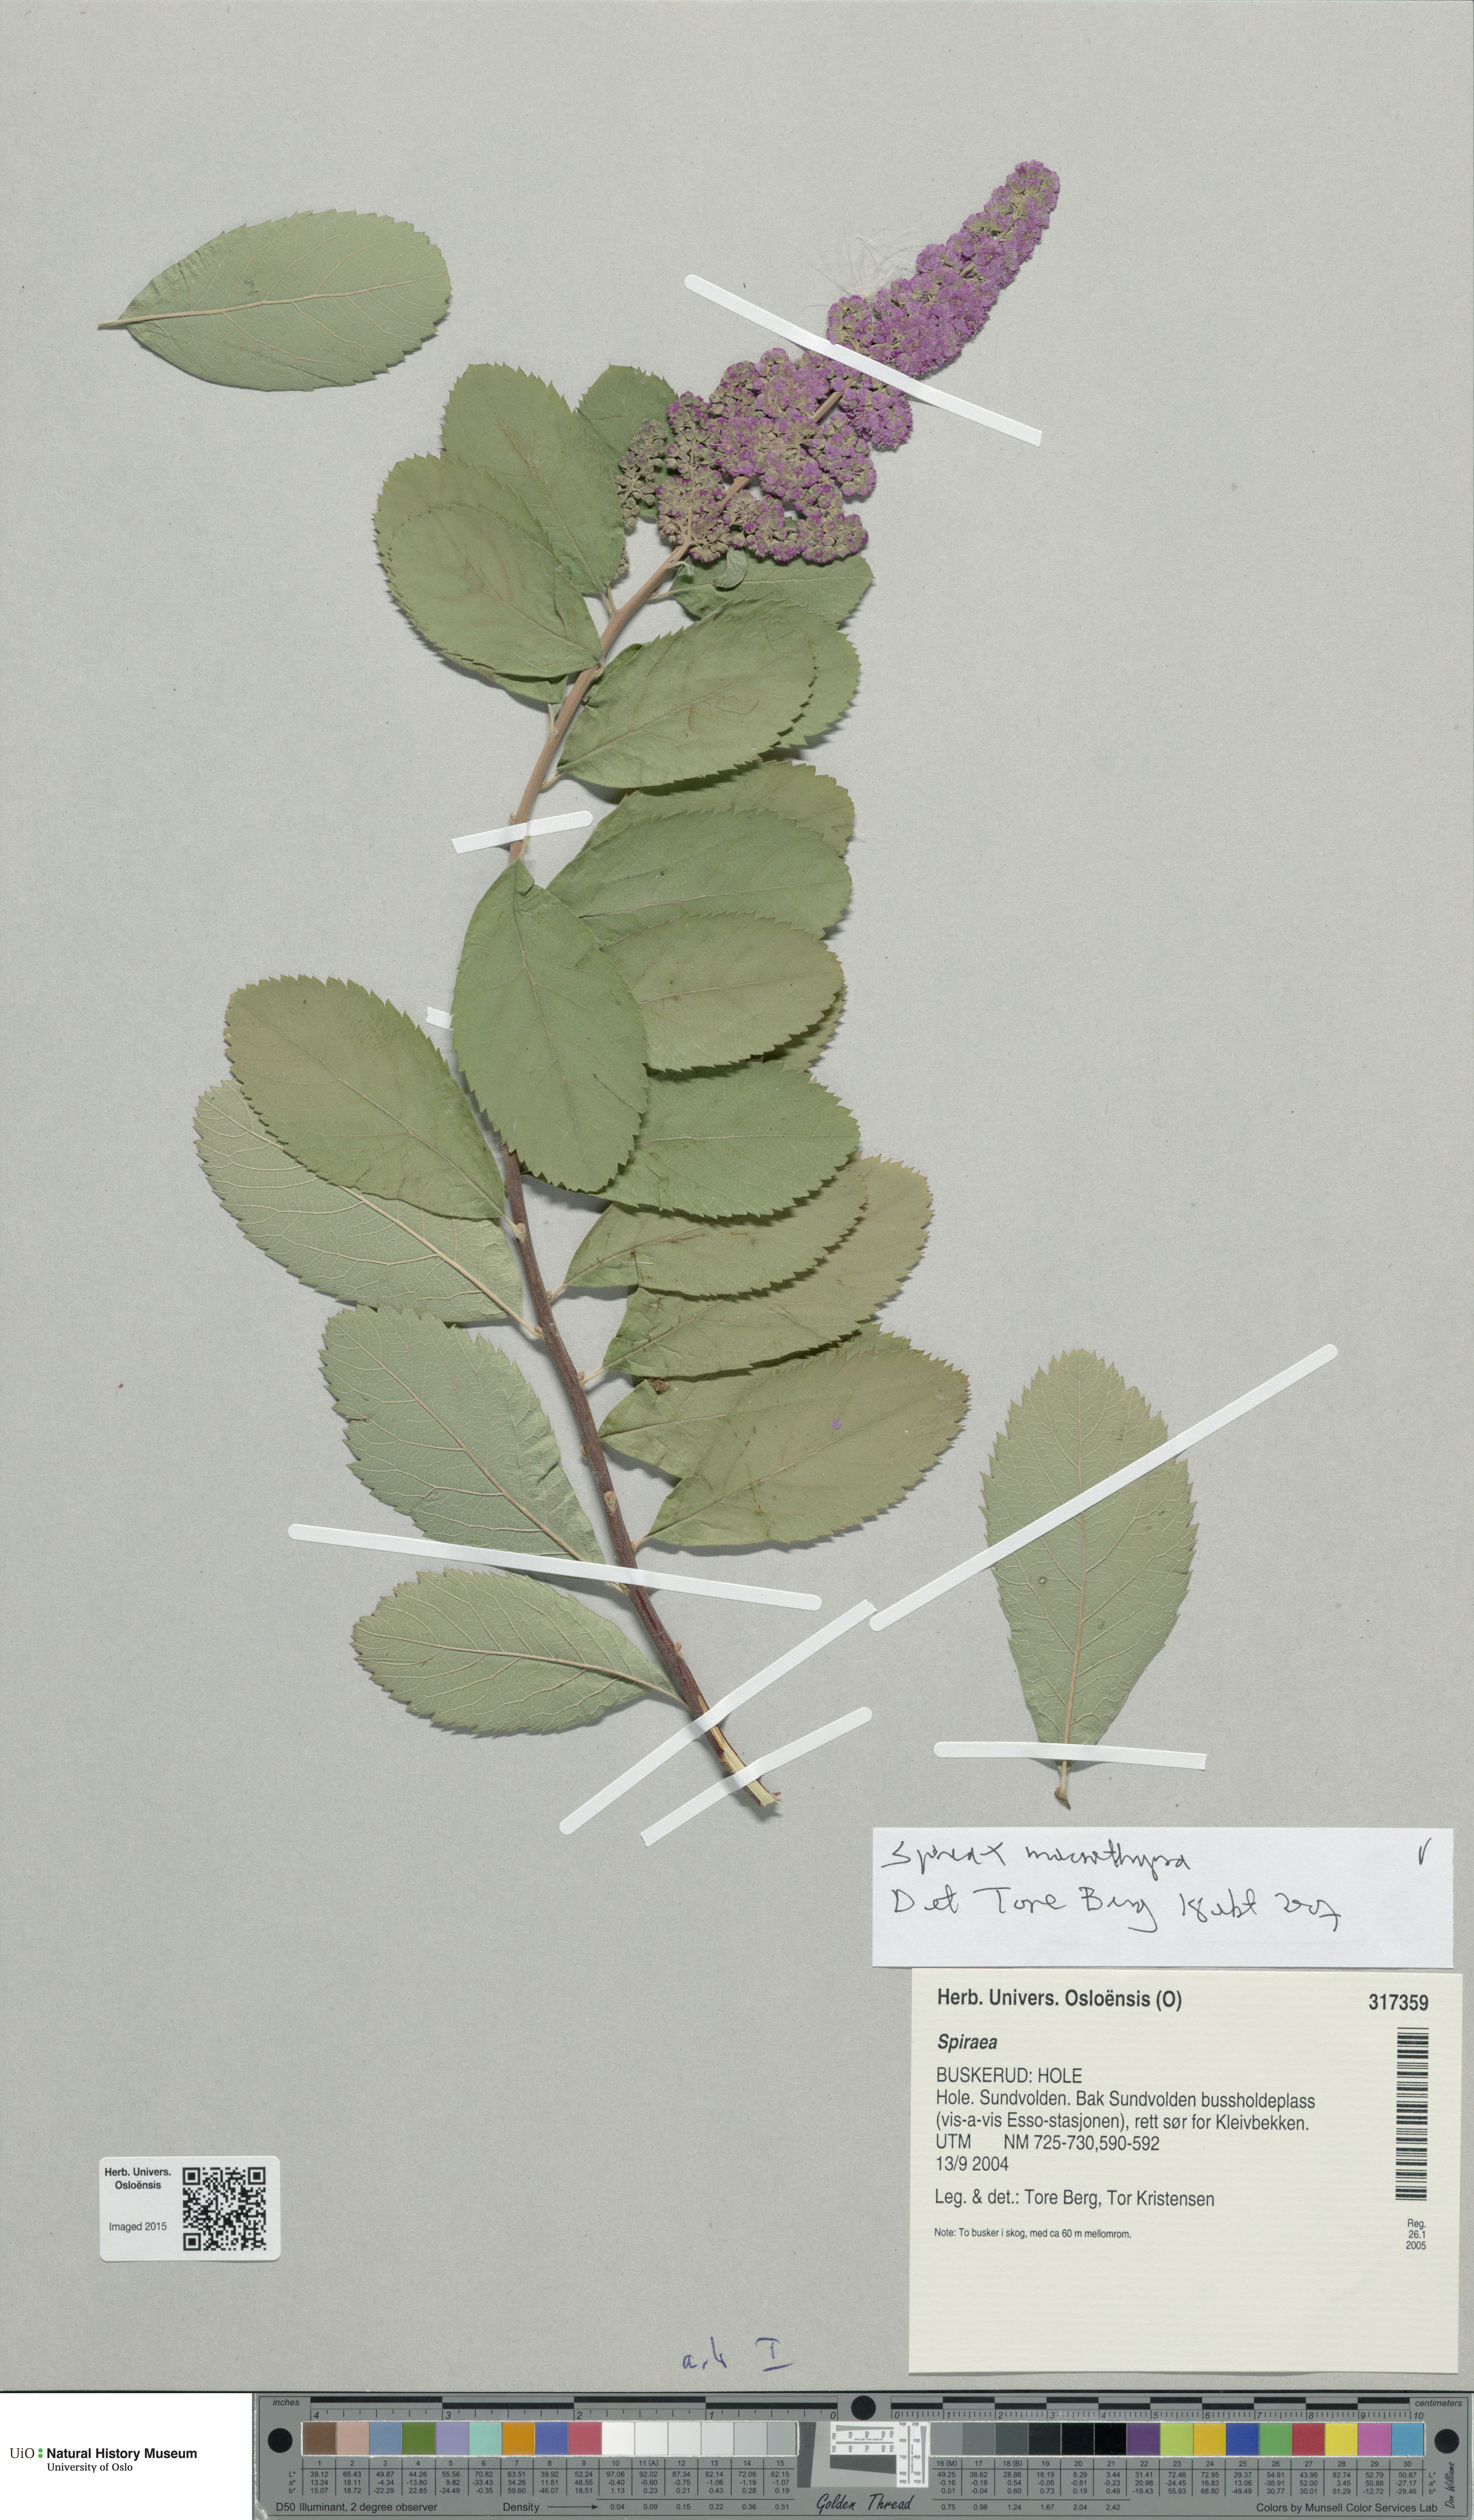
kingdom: Plantae
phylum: Tracheophyta
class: Magnoliopsida
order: Rosales
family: Rosaceae
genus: Spiraea
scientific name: Spiraea macrothyrsa
